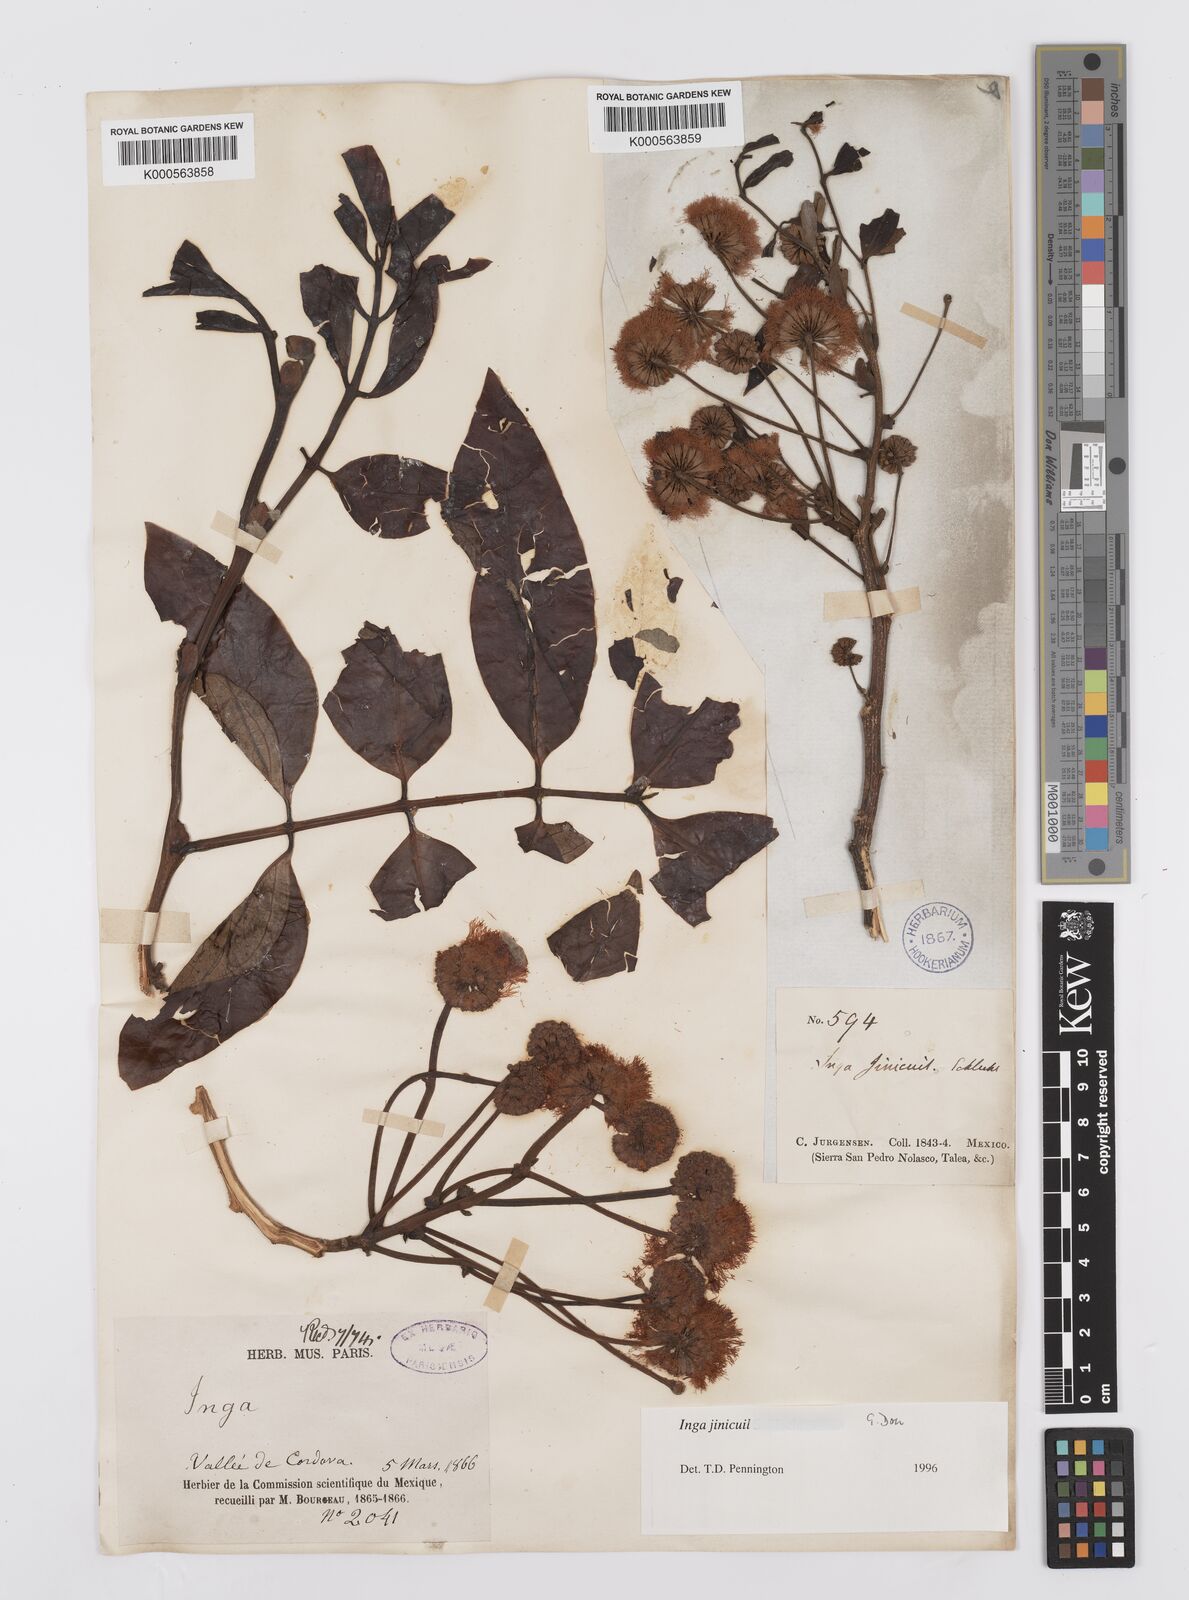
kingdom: Plantae
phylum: Tracheophyta
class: Magnoliopsida
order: Fabales
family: Fabaceae
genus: Inga
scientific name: Inga inicuil
